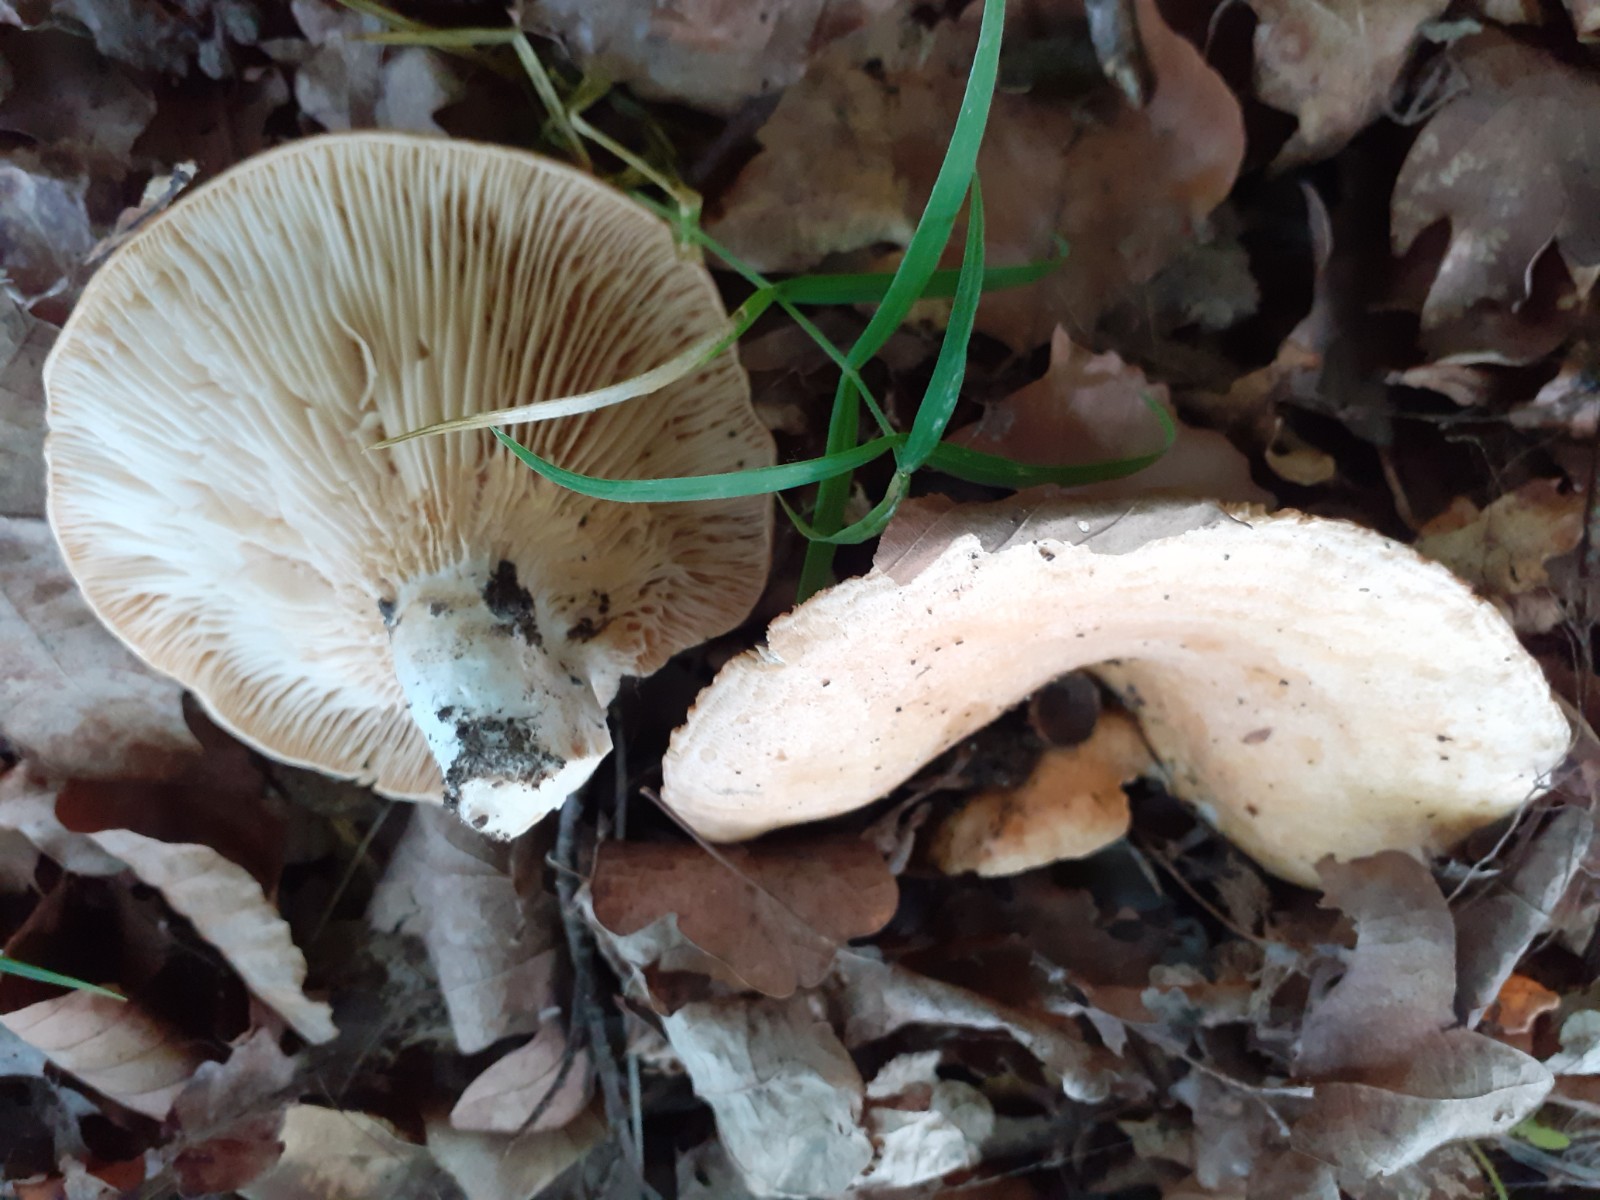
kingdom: Fungi
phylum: Basidiomycota
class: Agaricomycetes
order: Russulales
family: Russulaceae
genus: Lactarius
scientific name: Lactarius acerrimus
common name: brændende mælkehat
